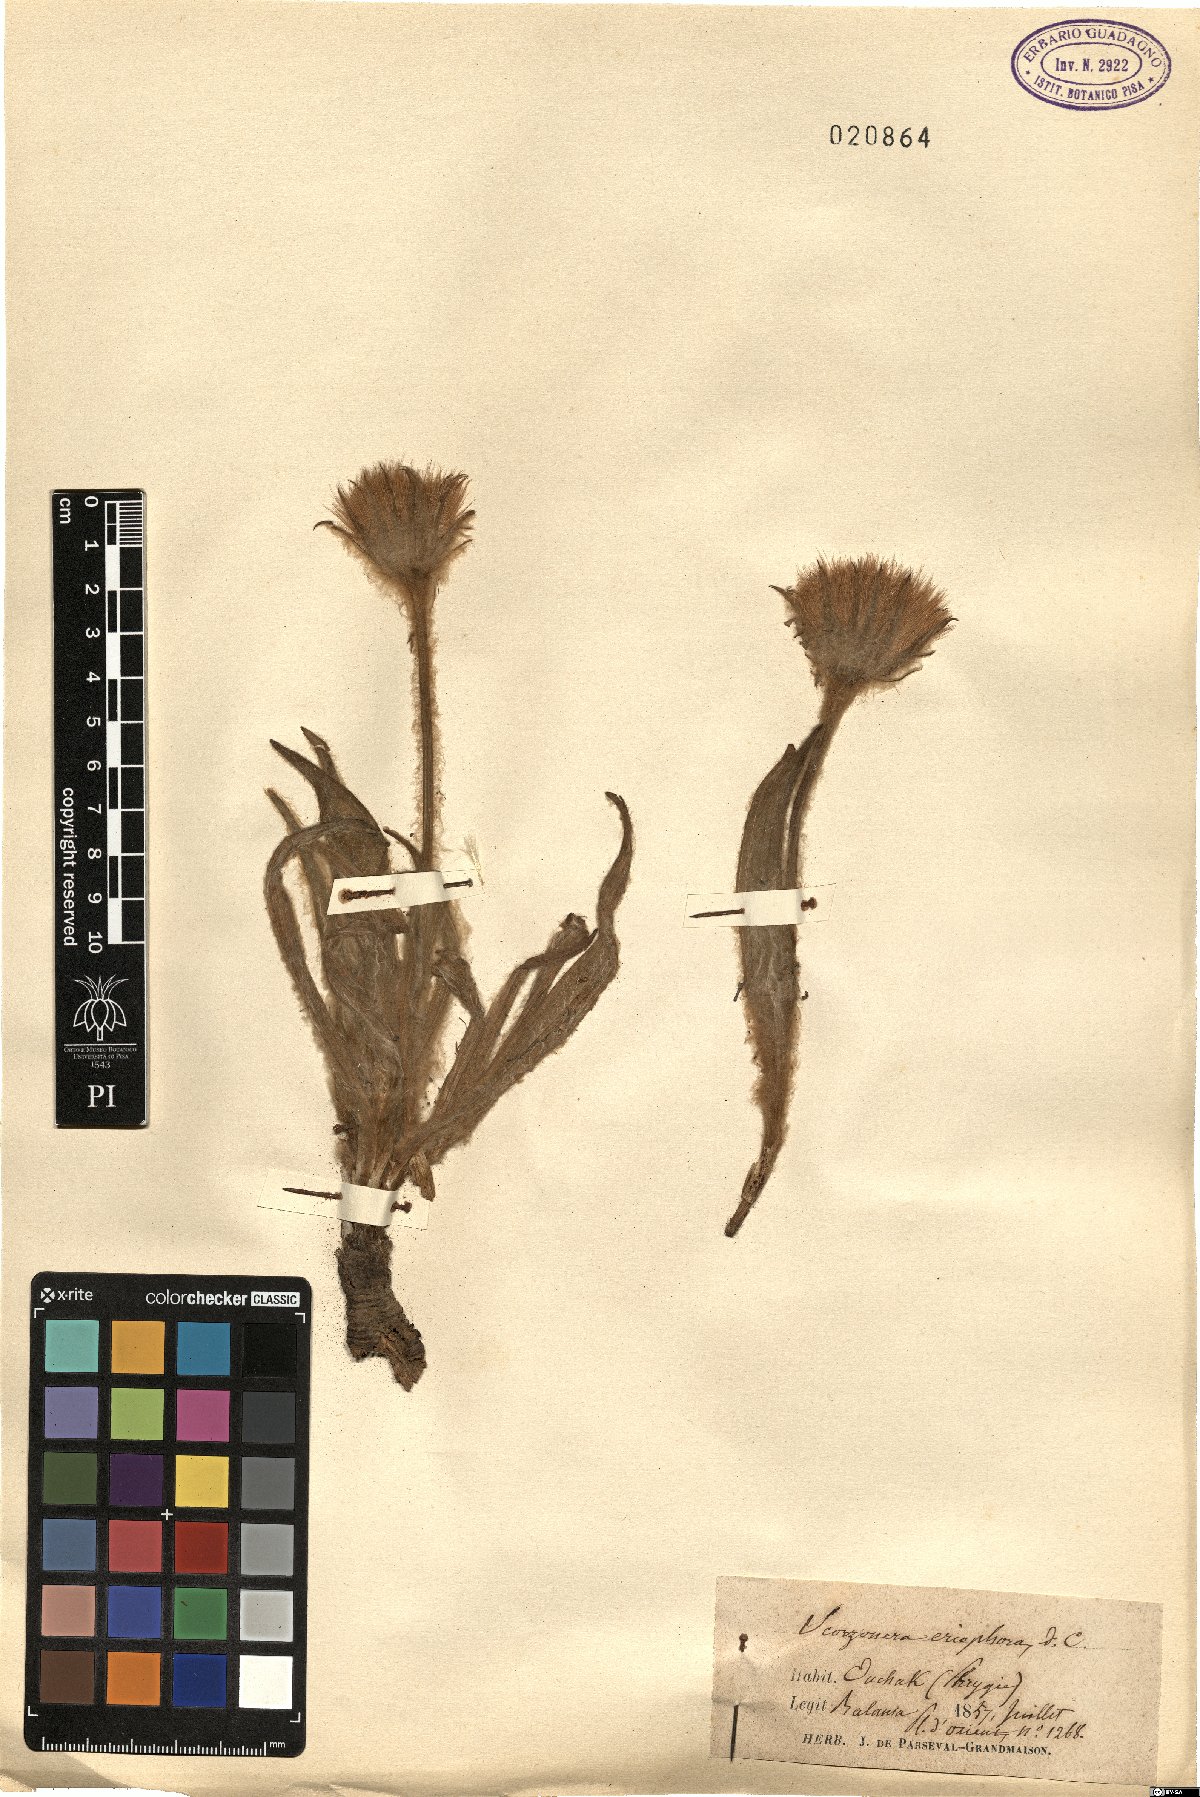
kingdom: Plantae
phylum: Tracheophyta
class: Magnoliopsida
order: Asterales
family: Asteraceae
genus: Bocquetia
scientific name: Bocquetia eriophora
